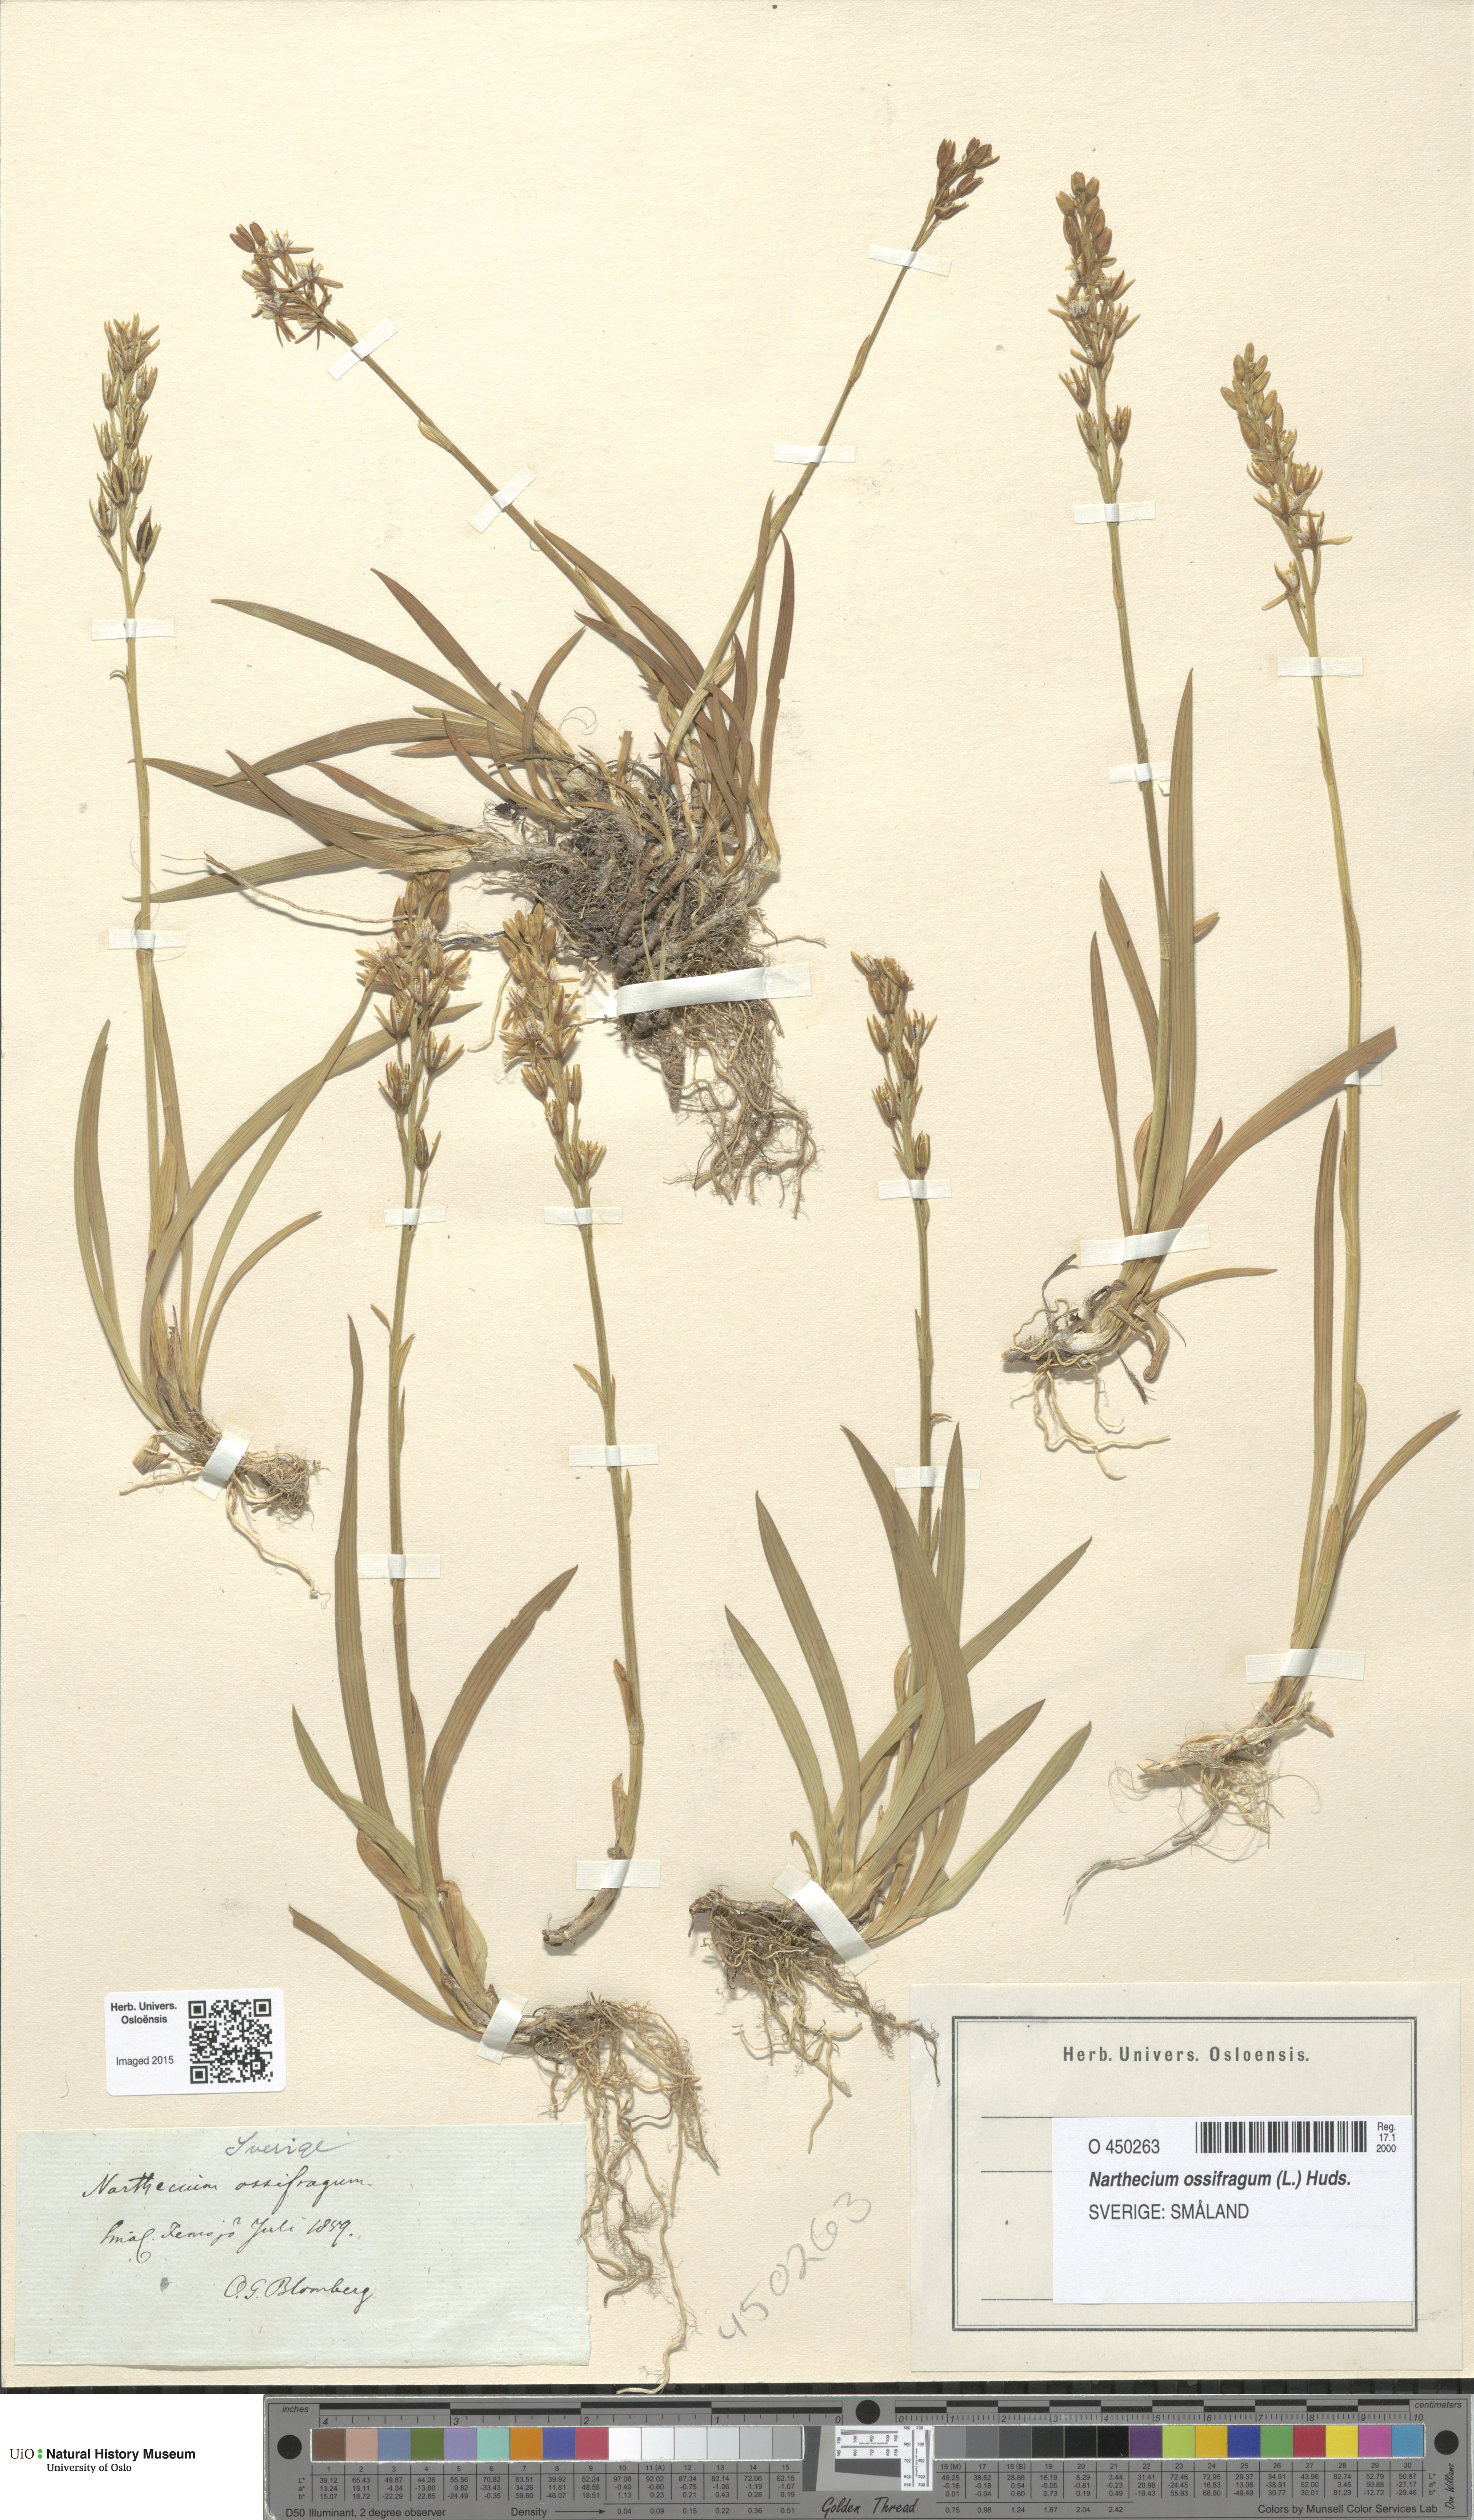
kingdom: Plantae
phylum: Tracheophyta
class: Liliopsida
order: Dioscoreales
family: Nartheciaceae
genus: Narthecium
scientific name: Narthecium ossifragum
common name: Bog asphodel
